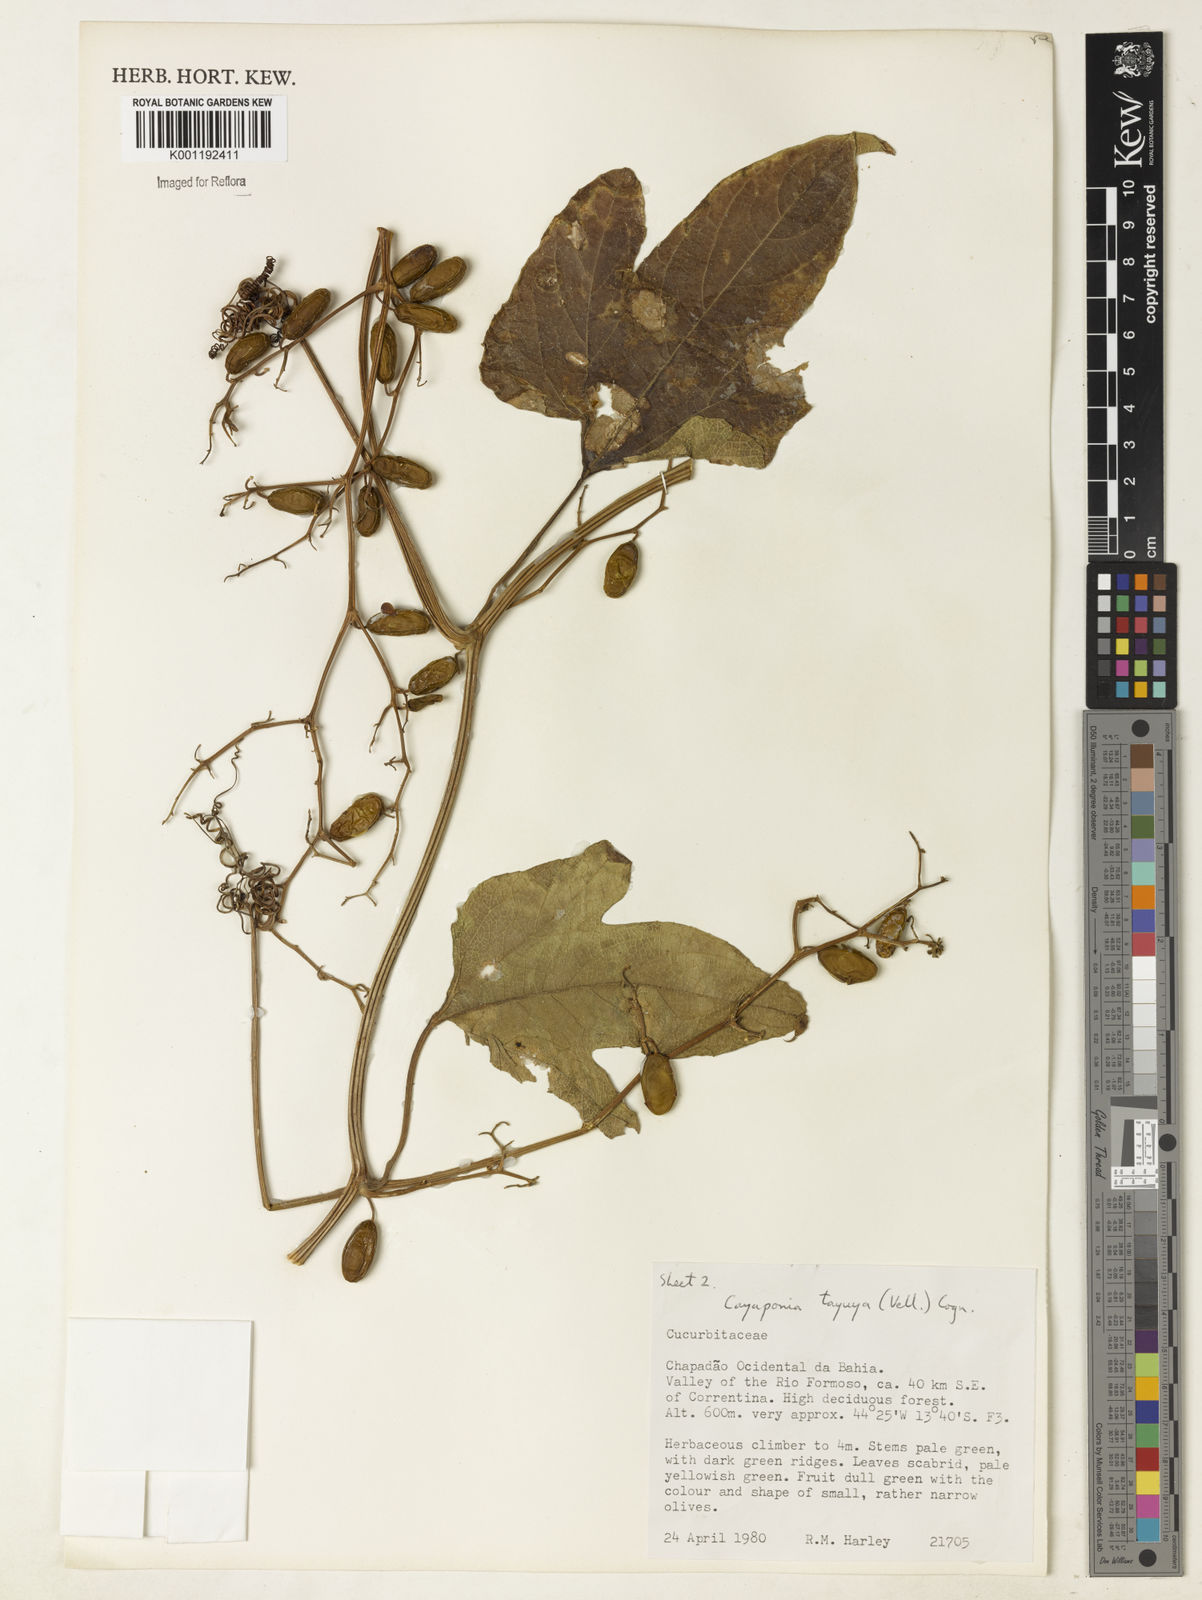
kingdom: Plantae
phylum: Tracheophyta
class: Magnoliopsida
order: Cucurbitales
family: Cucurbitaceae
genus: Cayaponia
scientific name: Cayaponia tayuya
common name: Tayuya
